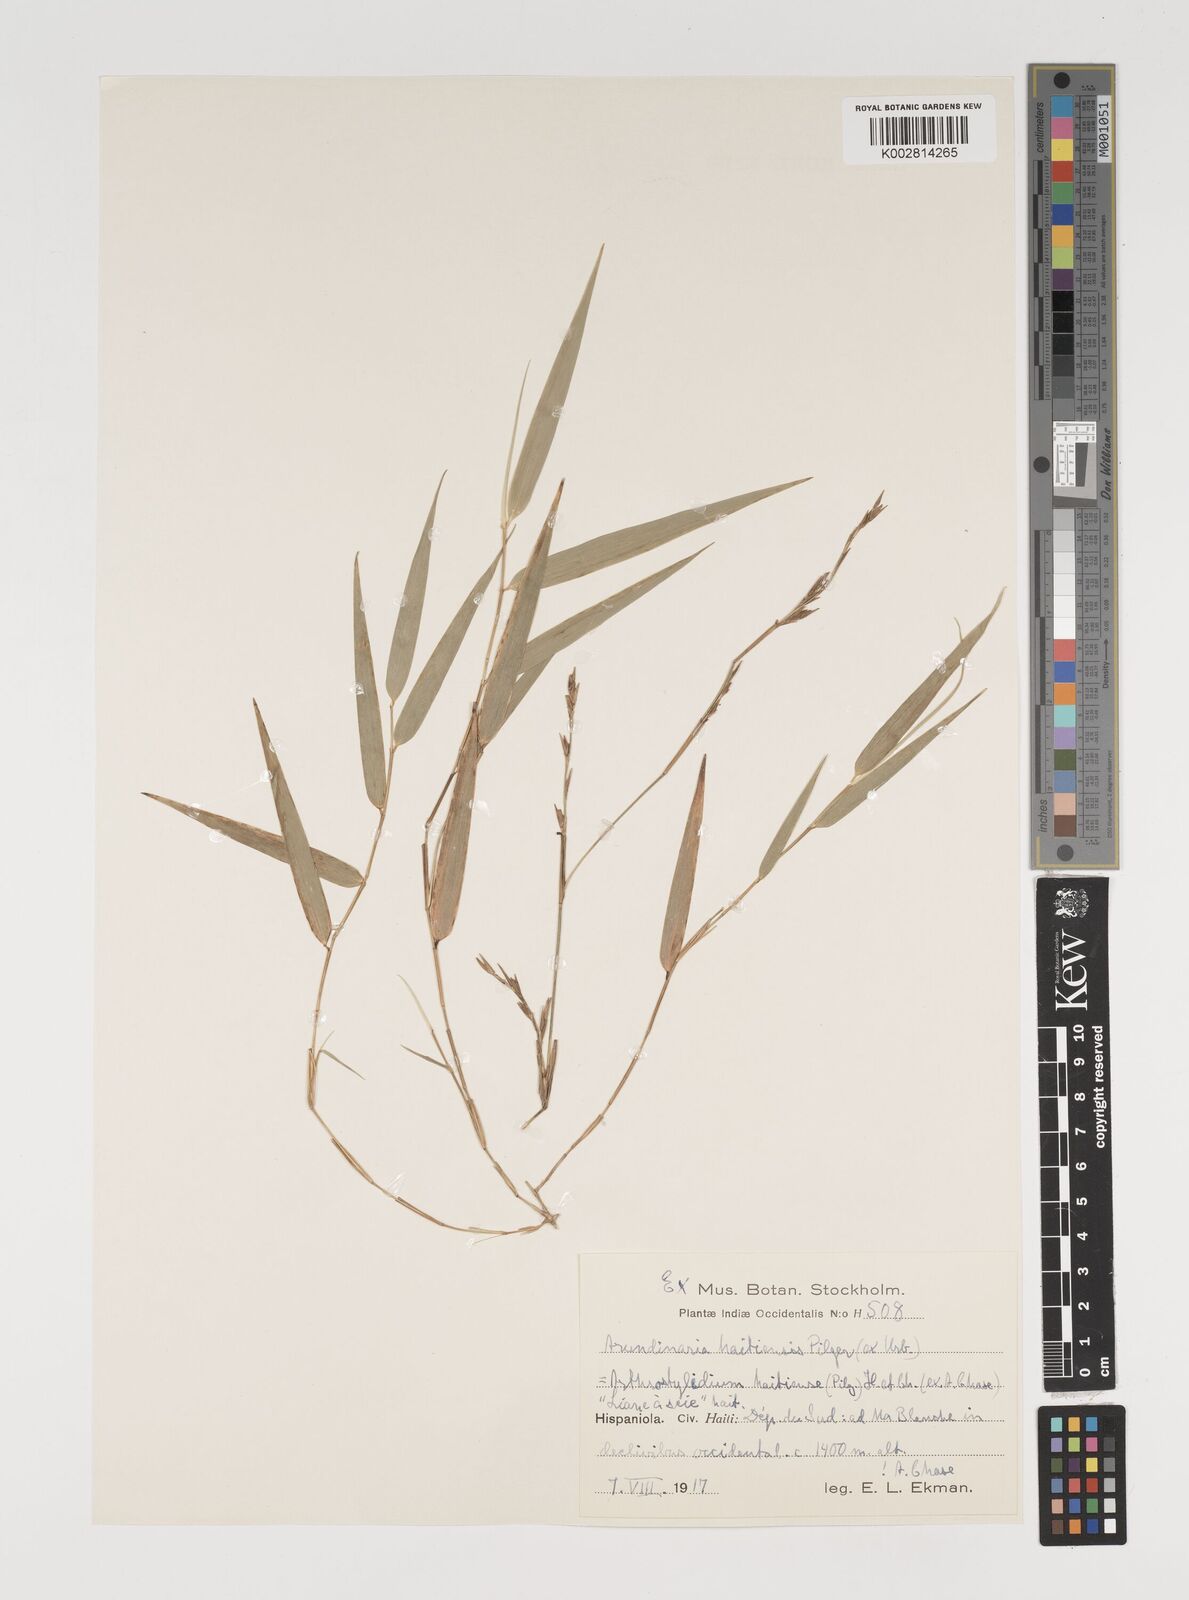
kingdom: Plantae
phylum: Tracheophyta
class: Liliopsida
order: Poales
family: Poaceae
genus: Arthrostylidium
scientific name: Arthrostylidium haitiense
